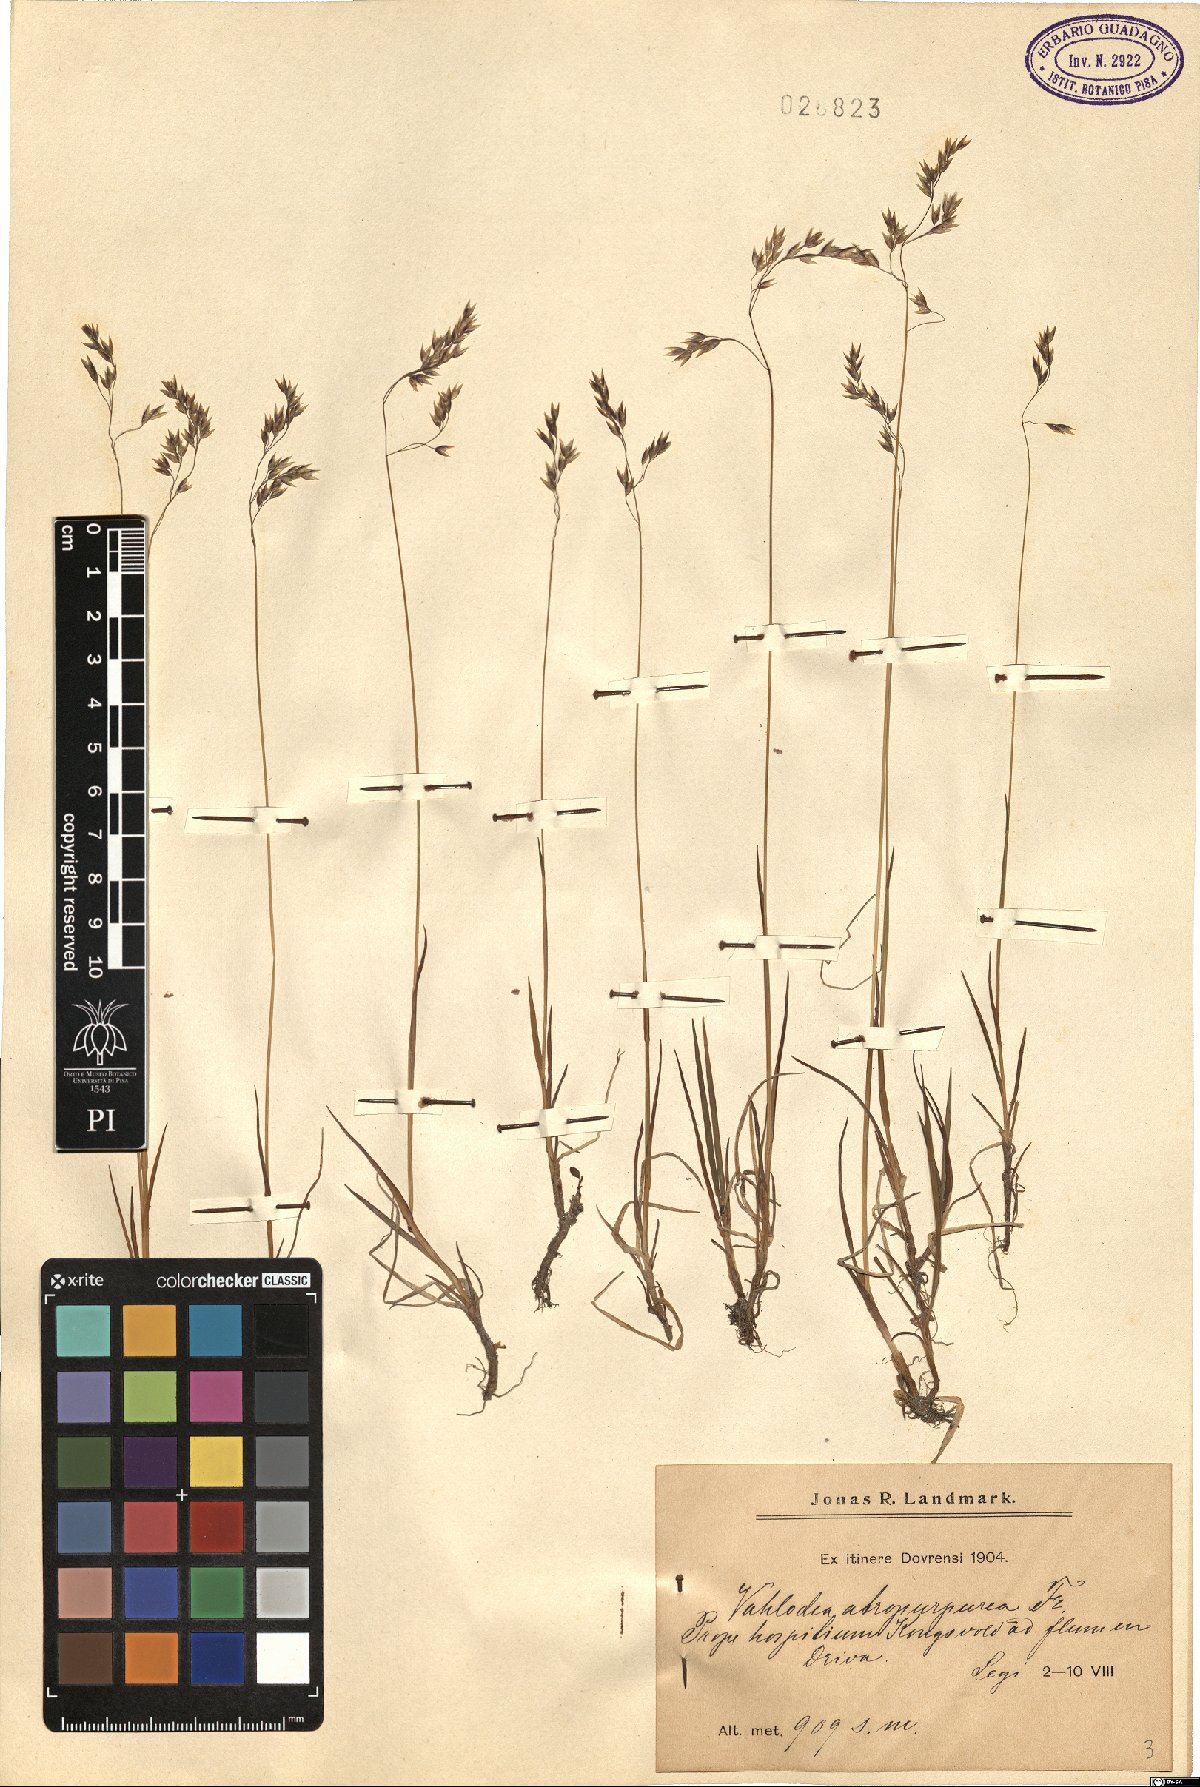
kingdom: Plantae
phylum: Tracheophyta
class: Liliopsida
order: Poales
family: Poaceae
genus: Vahlodea
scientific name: Vahlodea atropurpurea
